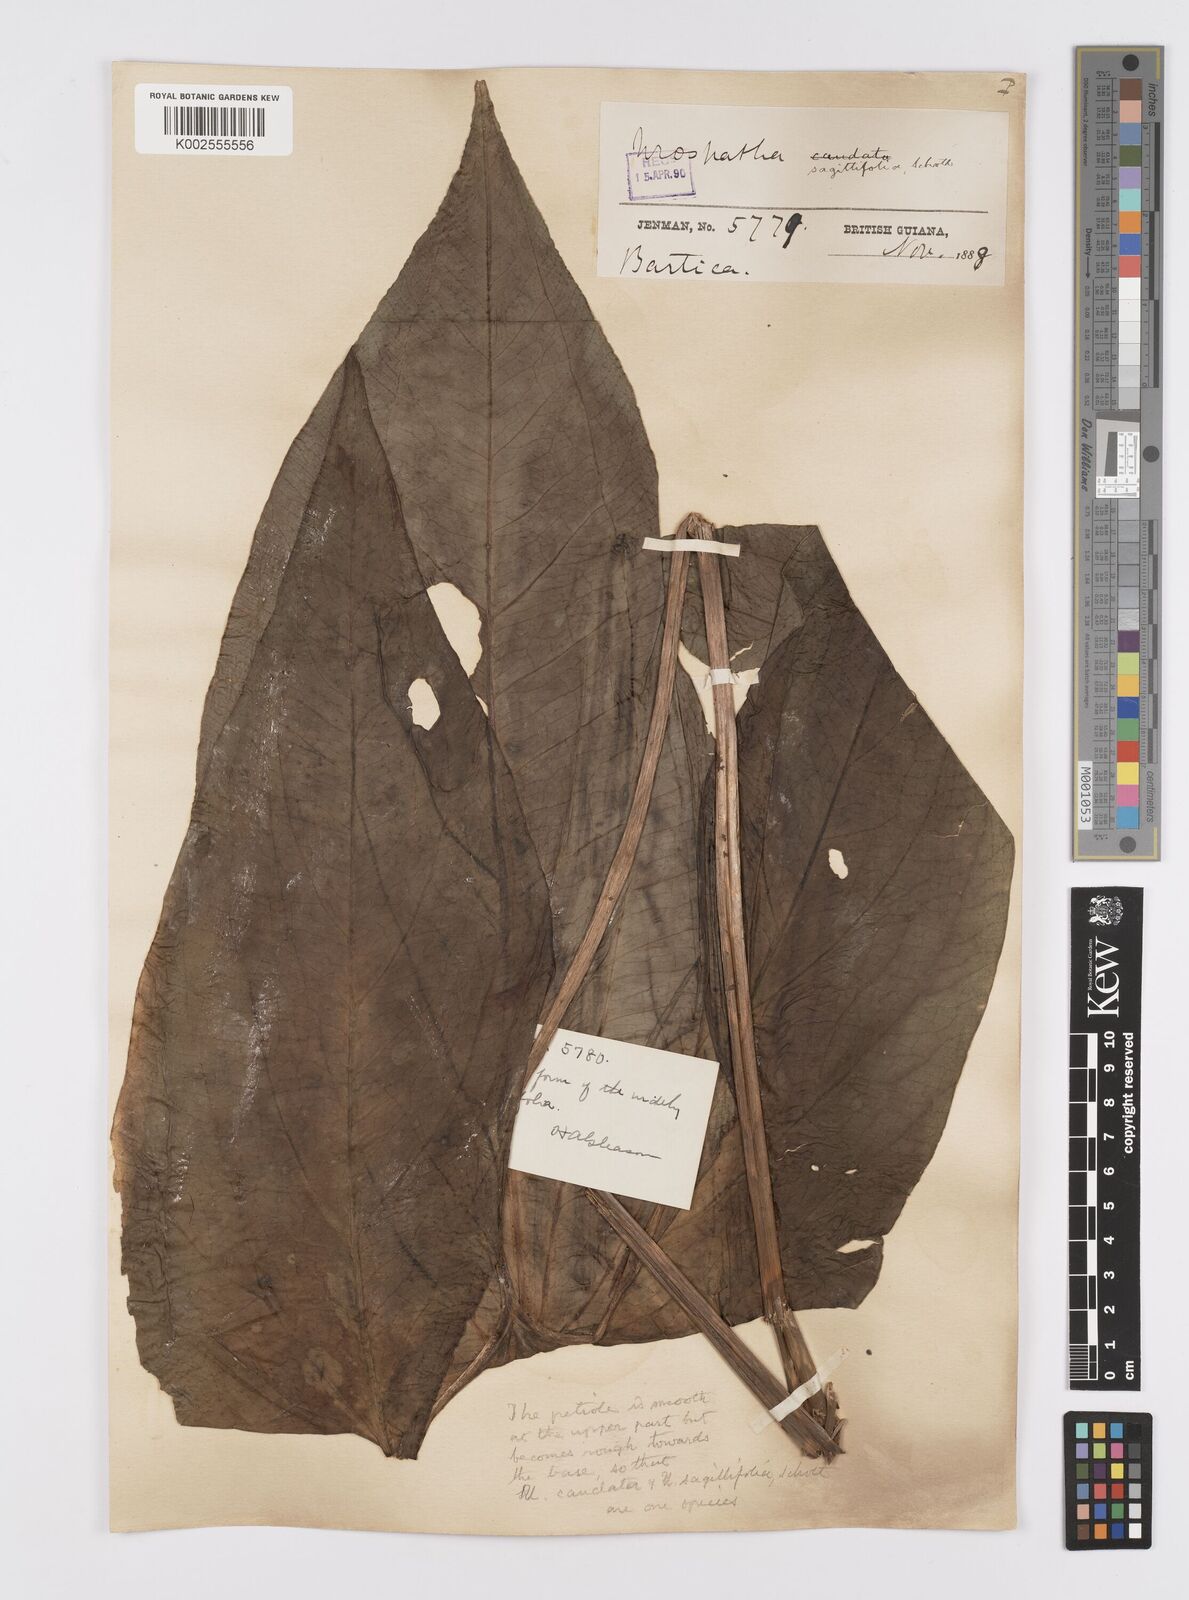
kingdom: Plantae
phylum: Tracheophyta
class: Liliopsida
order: Alismatales
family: Araceae
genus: Urospatha
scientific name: Urospatha sagittifolia
